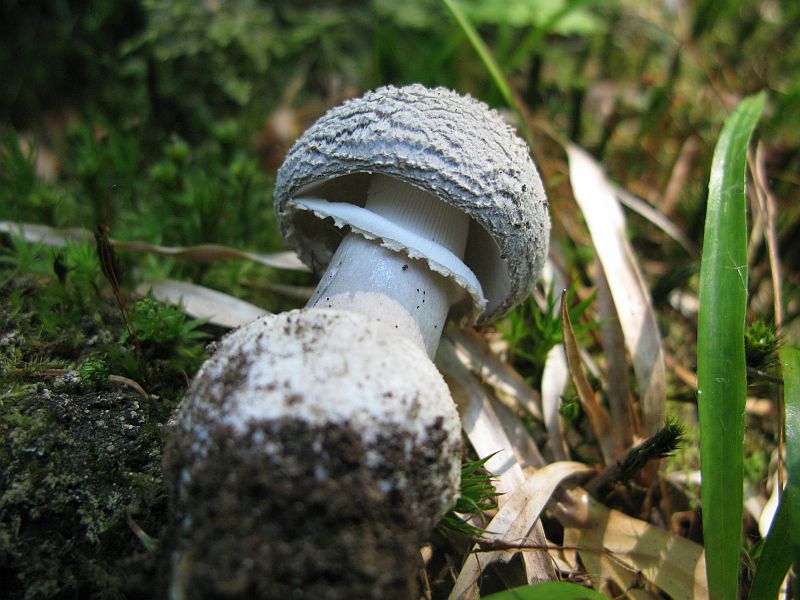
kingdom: Fungi
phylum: Basidiomycota
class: Agaricomycetes
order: Agaricales
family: Amanitaceae
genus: Amanita
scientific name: Amanita
